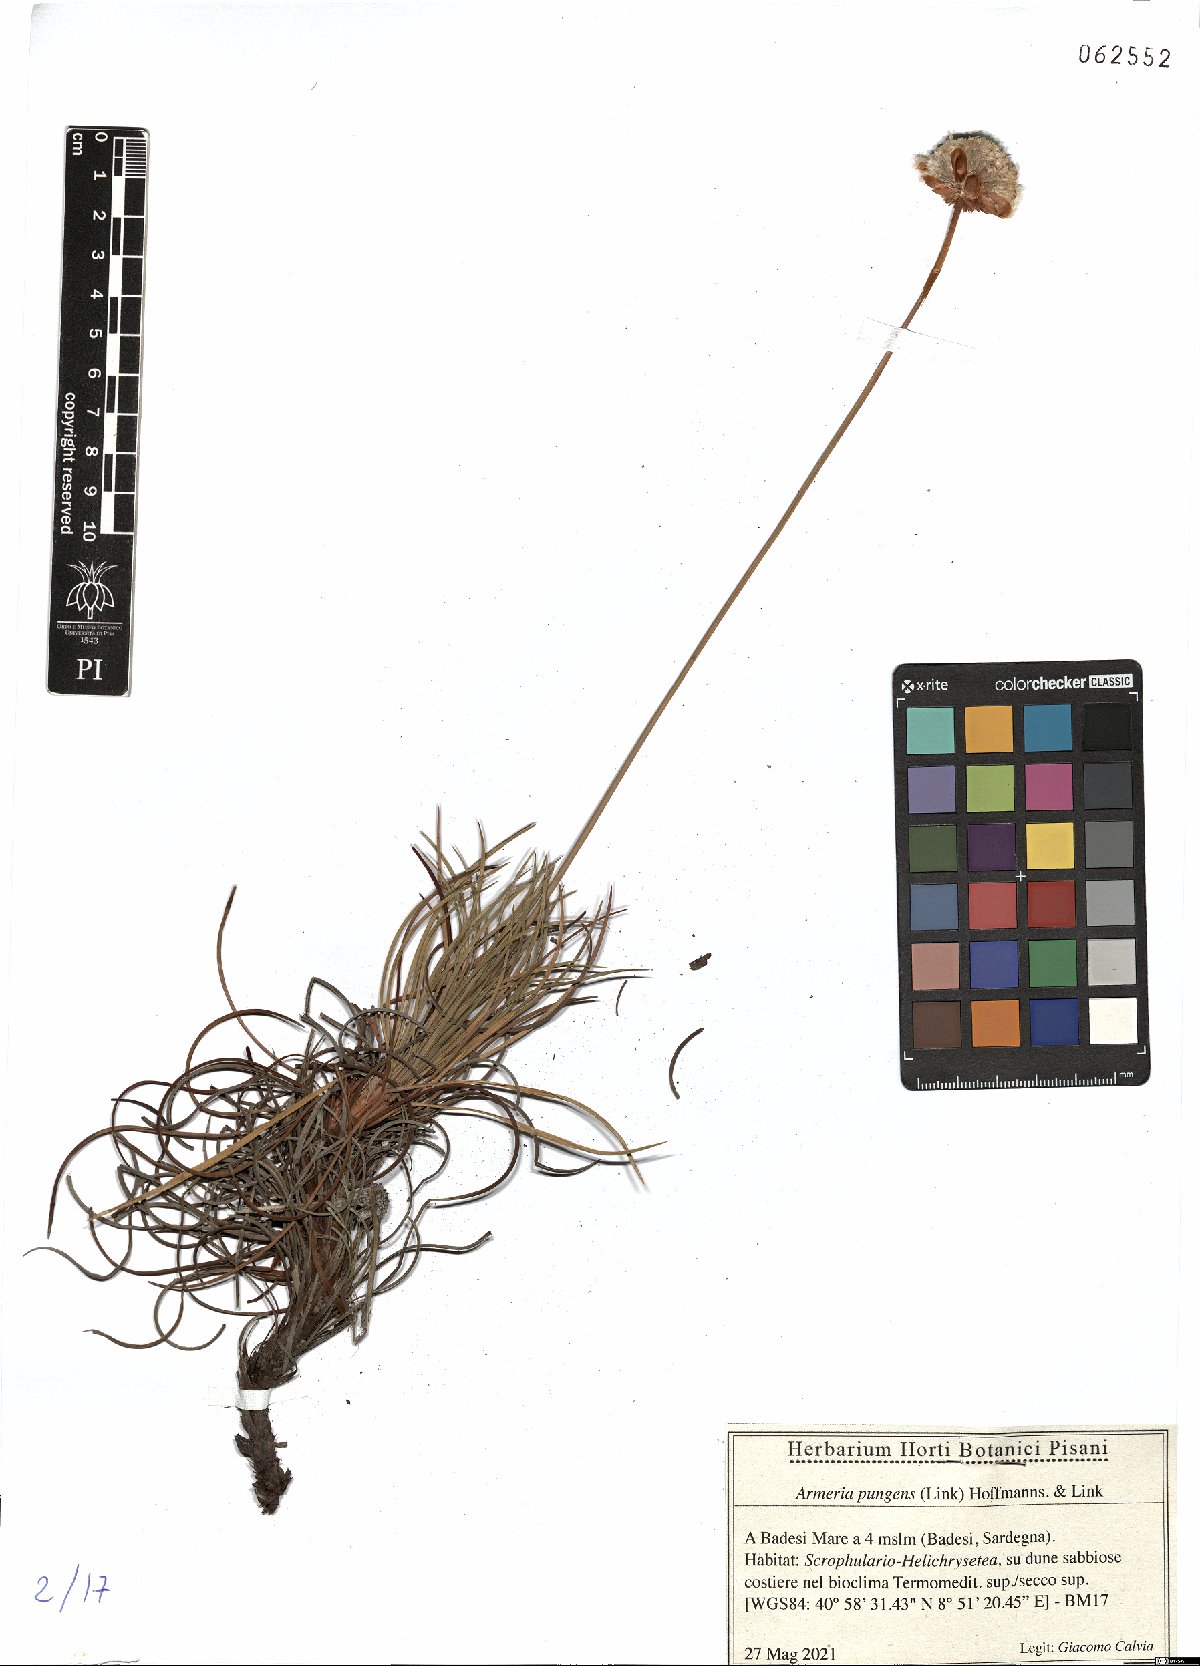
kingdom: Plantae
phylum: Tracheophyta
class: Magnoliopsida
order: Caryophyllales
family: Plumbaginaceae
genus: Armeria
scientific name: Armeria pungens
